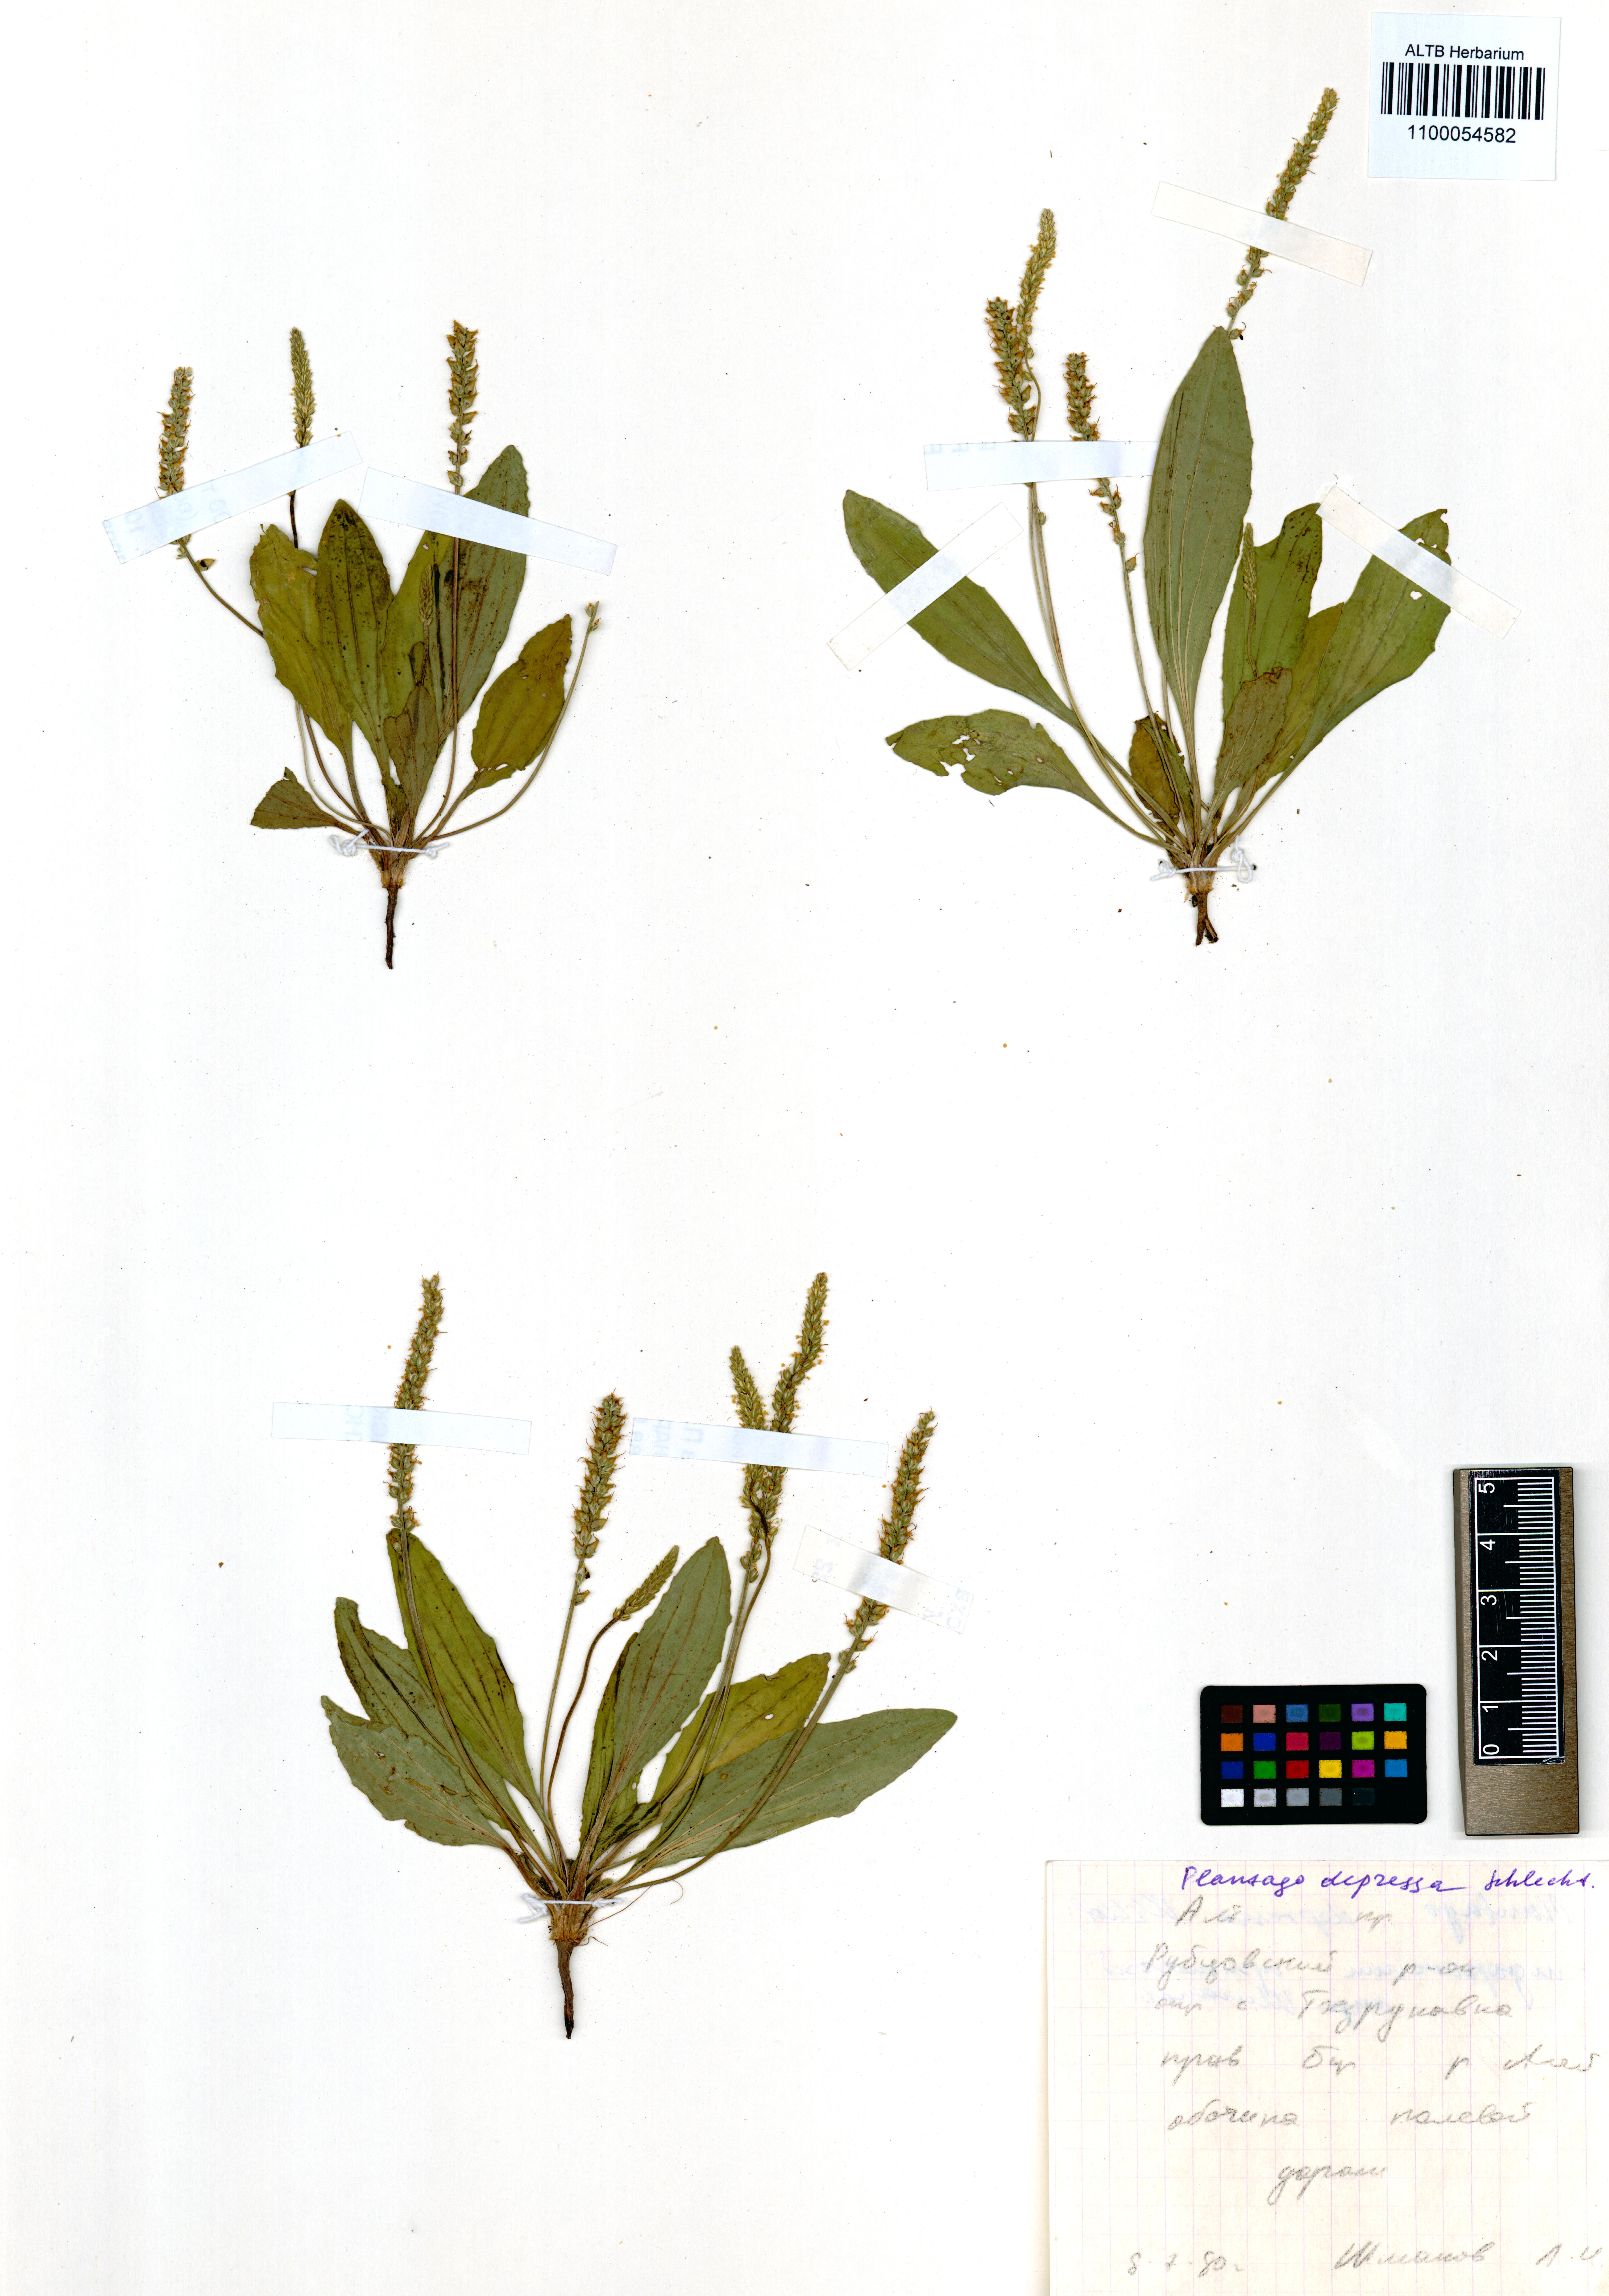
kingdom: Plantae
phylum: Tracheophyta
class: Magnoliopsida
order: Lamiales
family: Plantaginaceae
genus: Plantago
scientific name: Plantago depressa
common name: Depressed plantain
